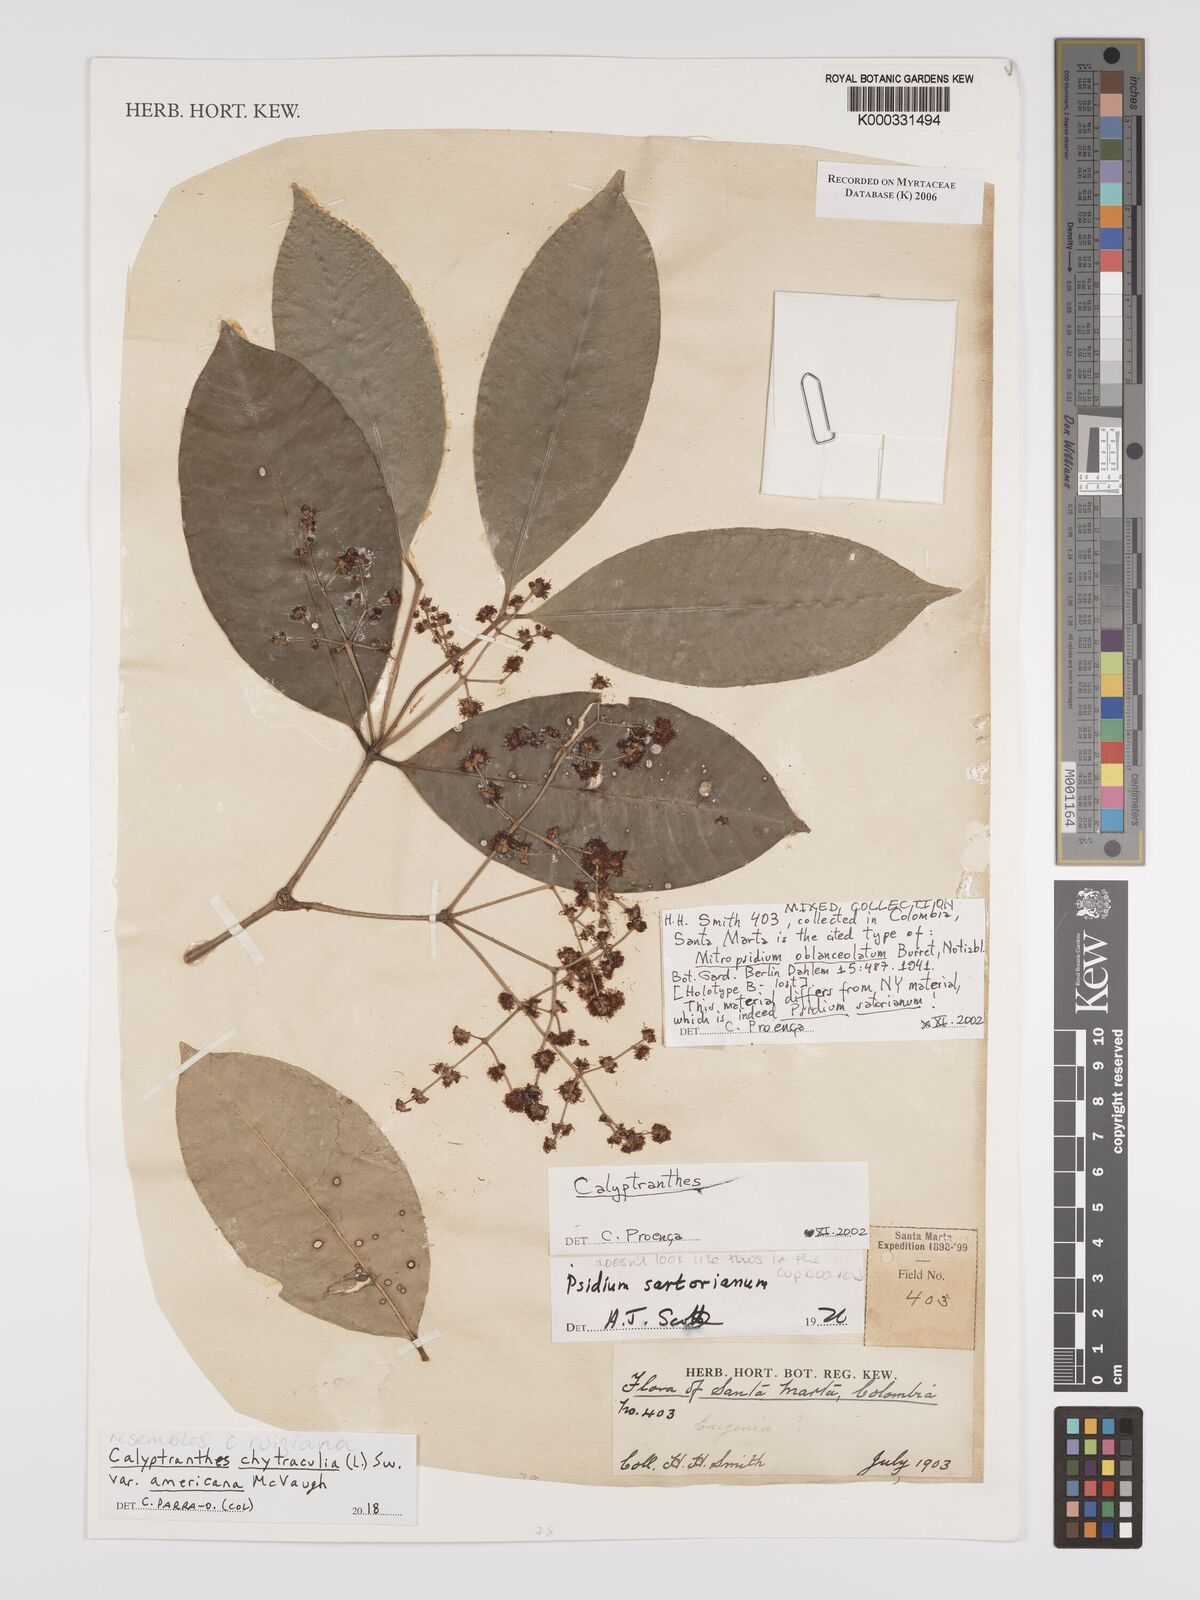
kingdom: Plantae
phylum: Tracheophyta
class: Magnoliopsida
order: Myrtales
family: Myrtaceae
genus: Calyptranthes
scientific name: Calyptranthes
